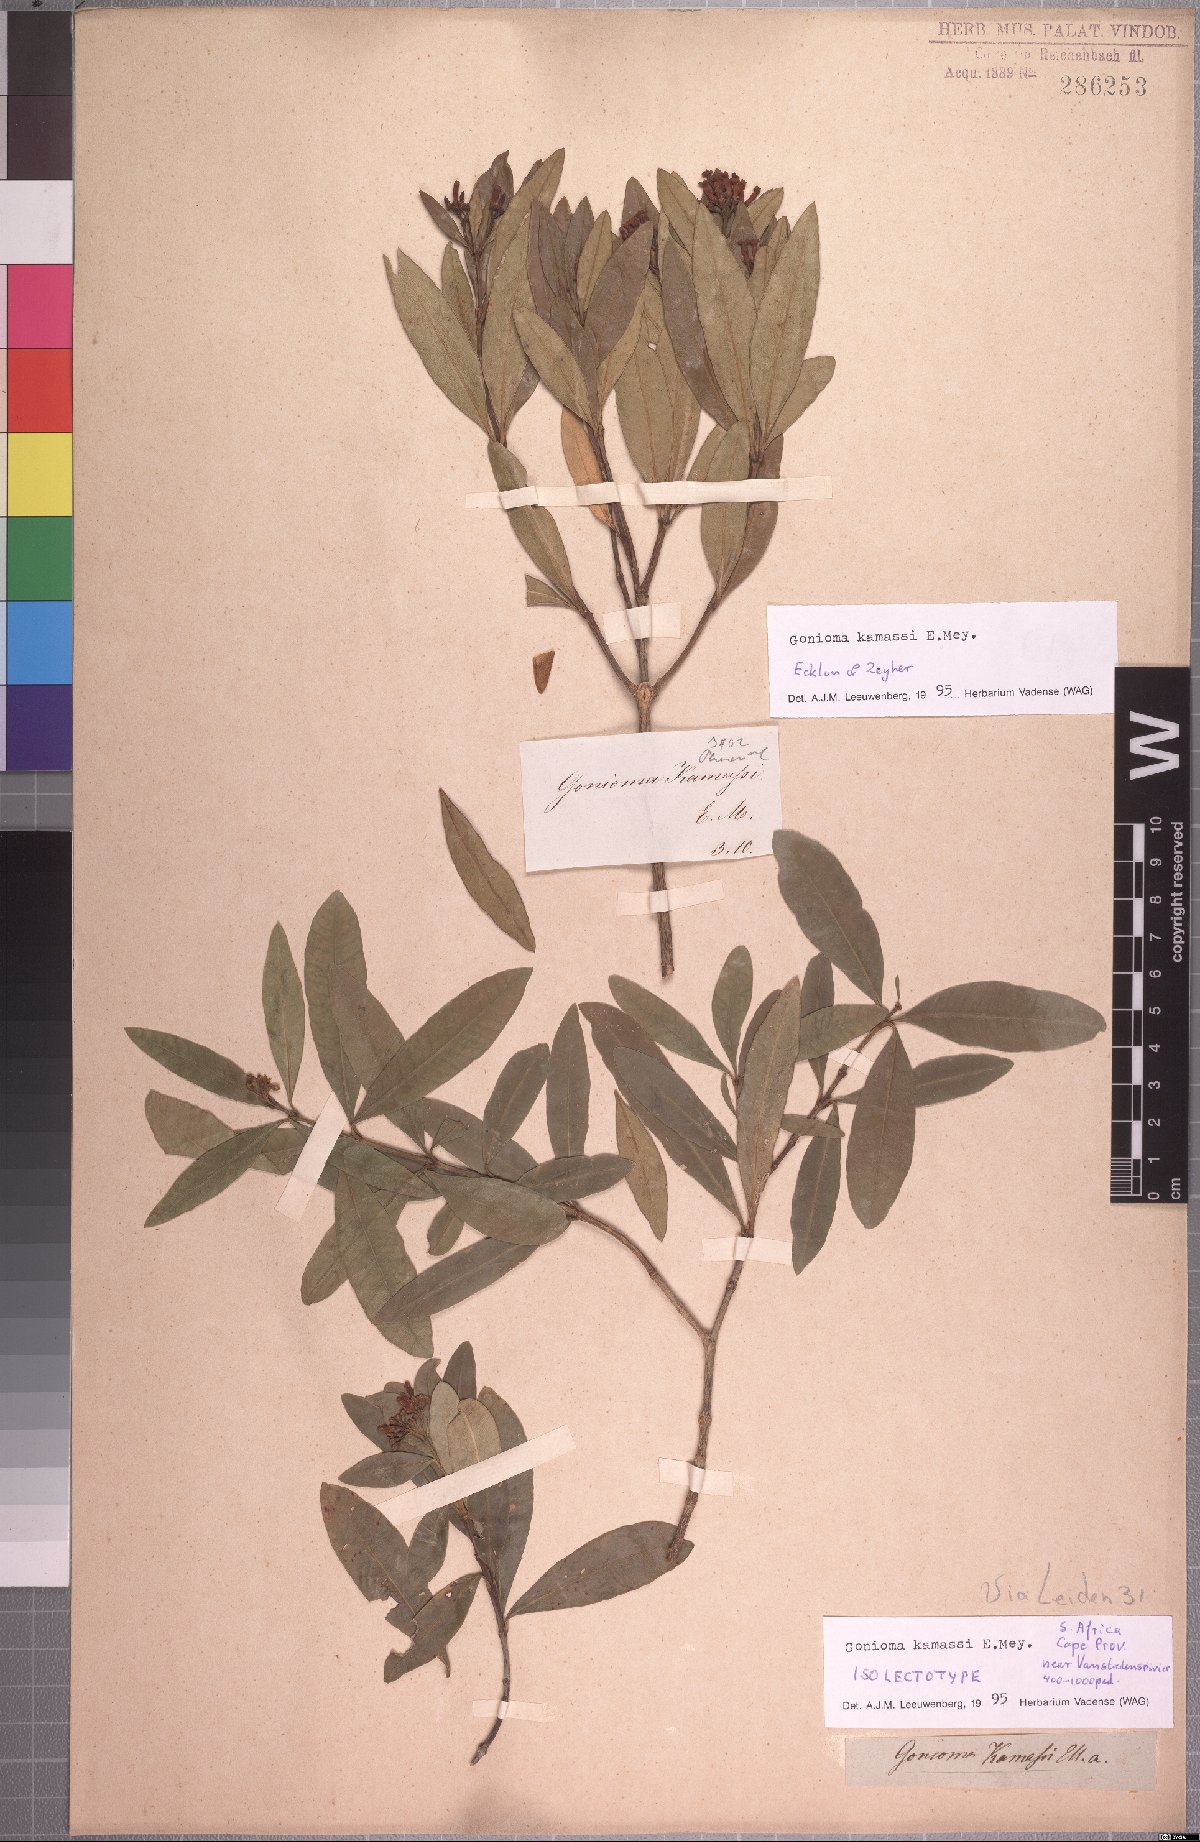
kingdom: Plantae
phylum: Tracheophyta
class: Magnoliopsida
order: Gentianales
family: Apocynaceae
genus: Gonioma
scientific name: Gonioma kamassi
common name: Kamassi
